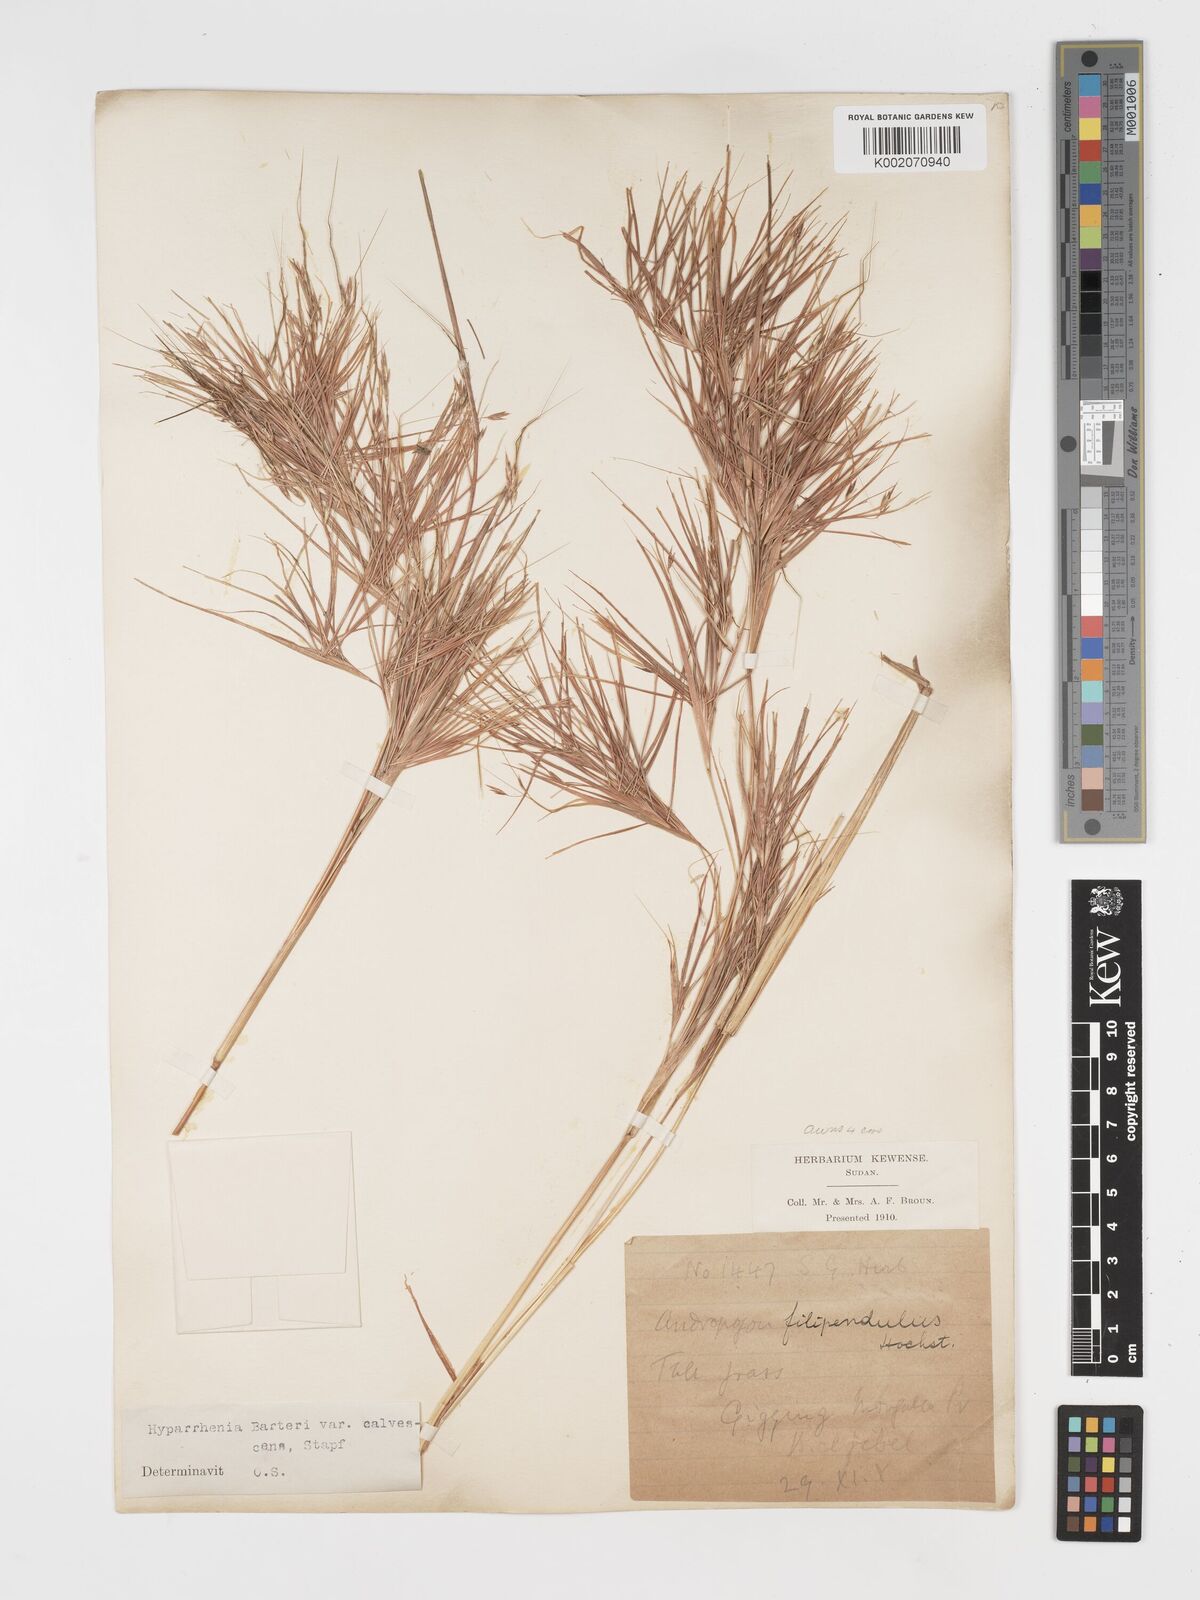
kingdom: Plantae
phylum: Tracheophyta
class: Liliopsida
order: Poales
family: Poaceae
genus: Hyparrhenia
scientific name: Hyparrhenia figariana
